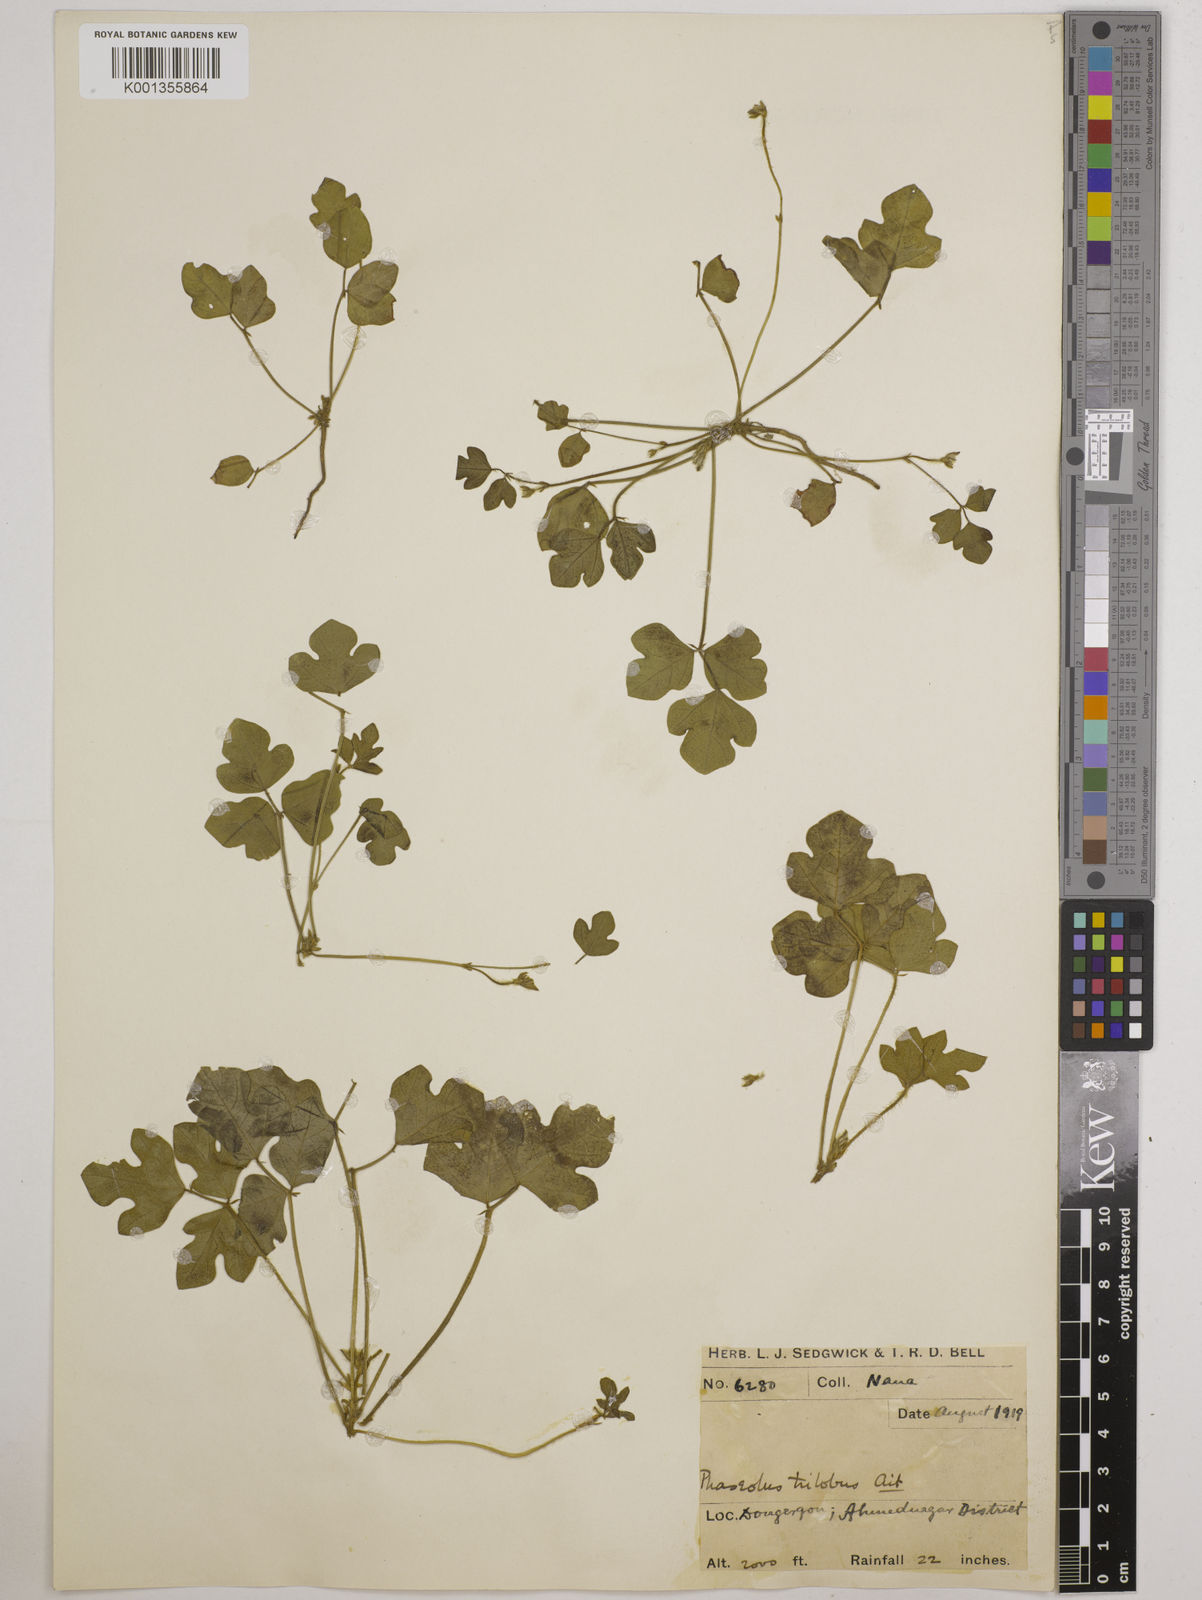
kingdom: Plantae
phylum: Tracheophyta
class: Magnoliopsida
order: Fabales
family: Fabaceae
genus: Vigna
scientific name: Vigna trilobata
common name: Jungli-bean
